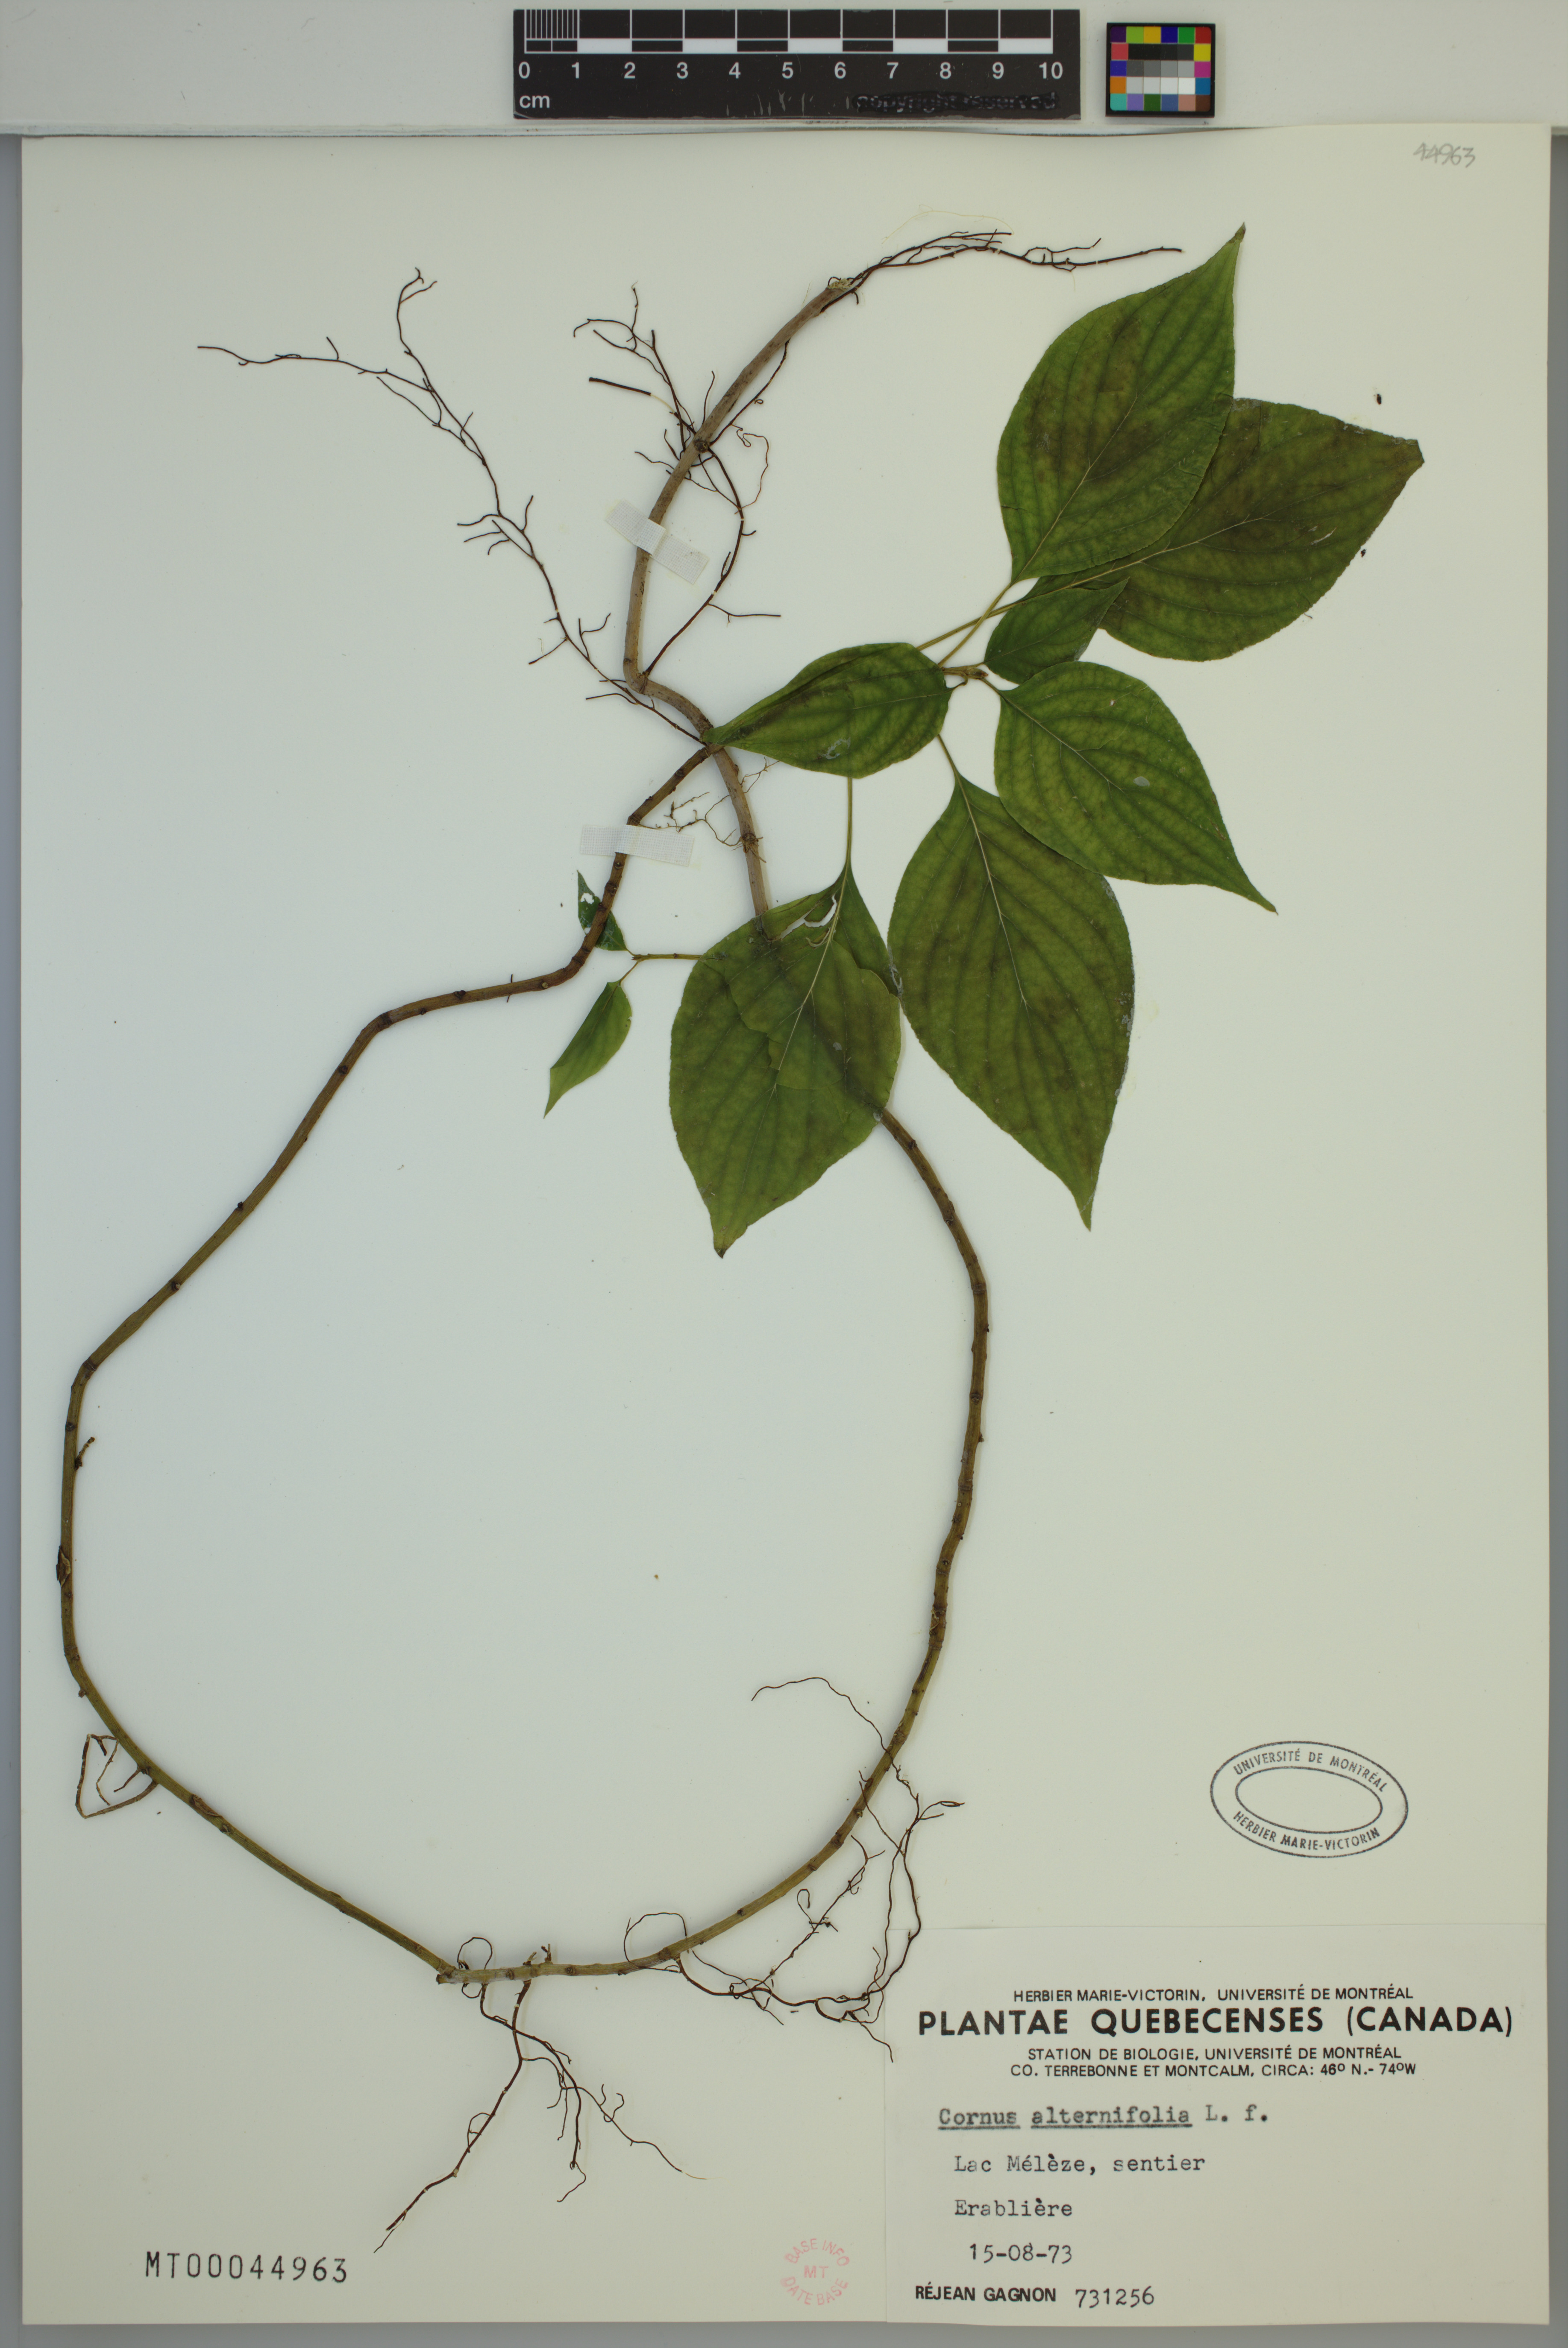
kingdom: Plantae
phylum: Tracheophyta
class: Magnoliopsida
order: Cornales
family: Cornaceae
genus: Cornus
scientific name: Cornus alternifolia
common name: Pagoda dogwood
